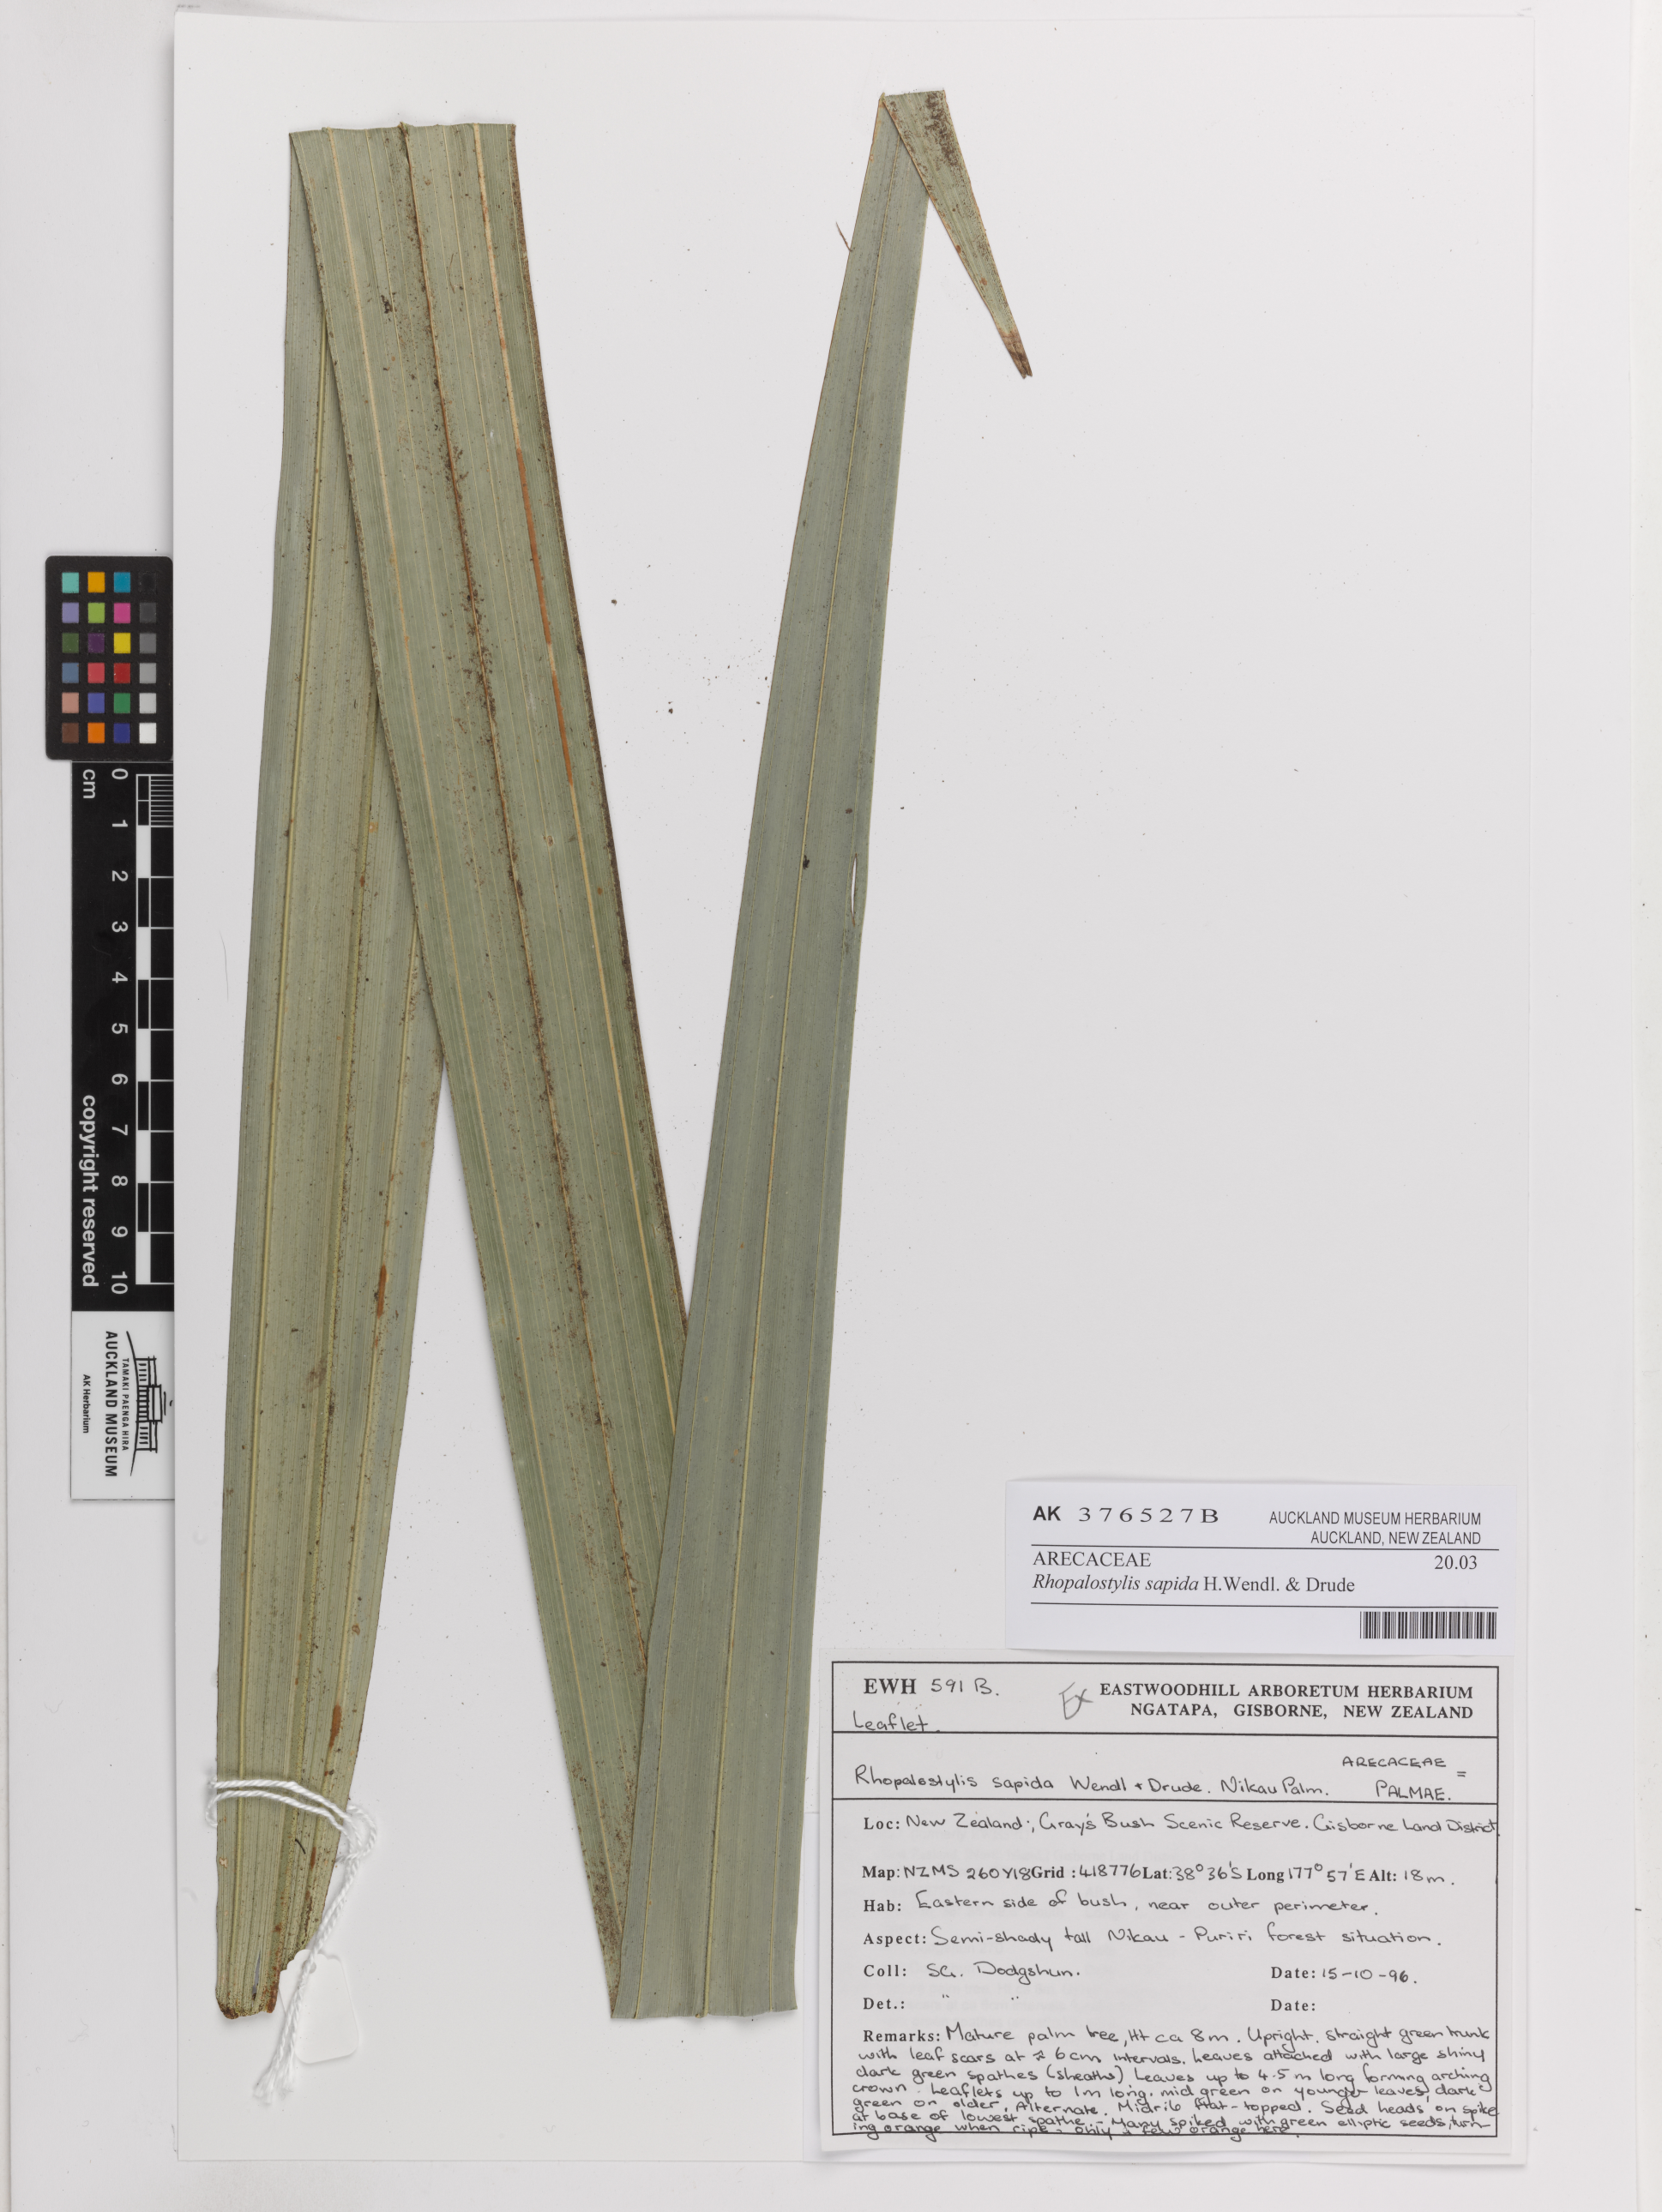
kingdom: Plantae
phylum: Tracheophyta
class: Liliopsida
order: Arecales
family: Arecaceae
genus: Rhopalostylis
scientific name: Rhopalostylis sapida
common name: Feather-duster palm
